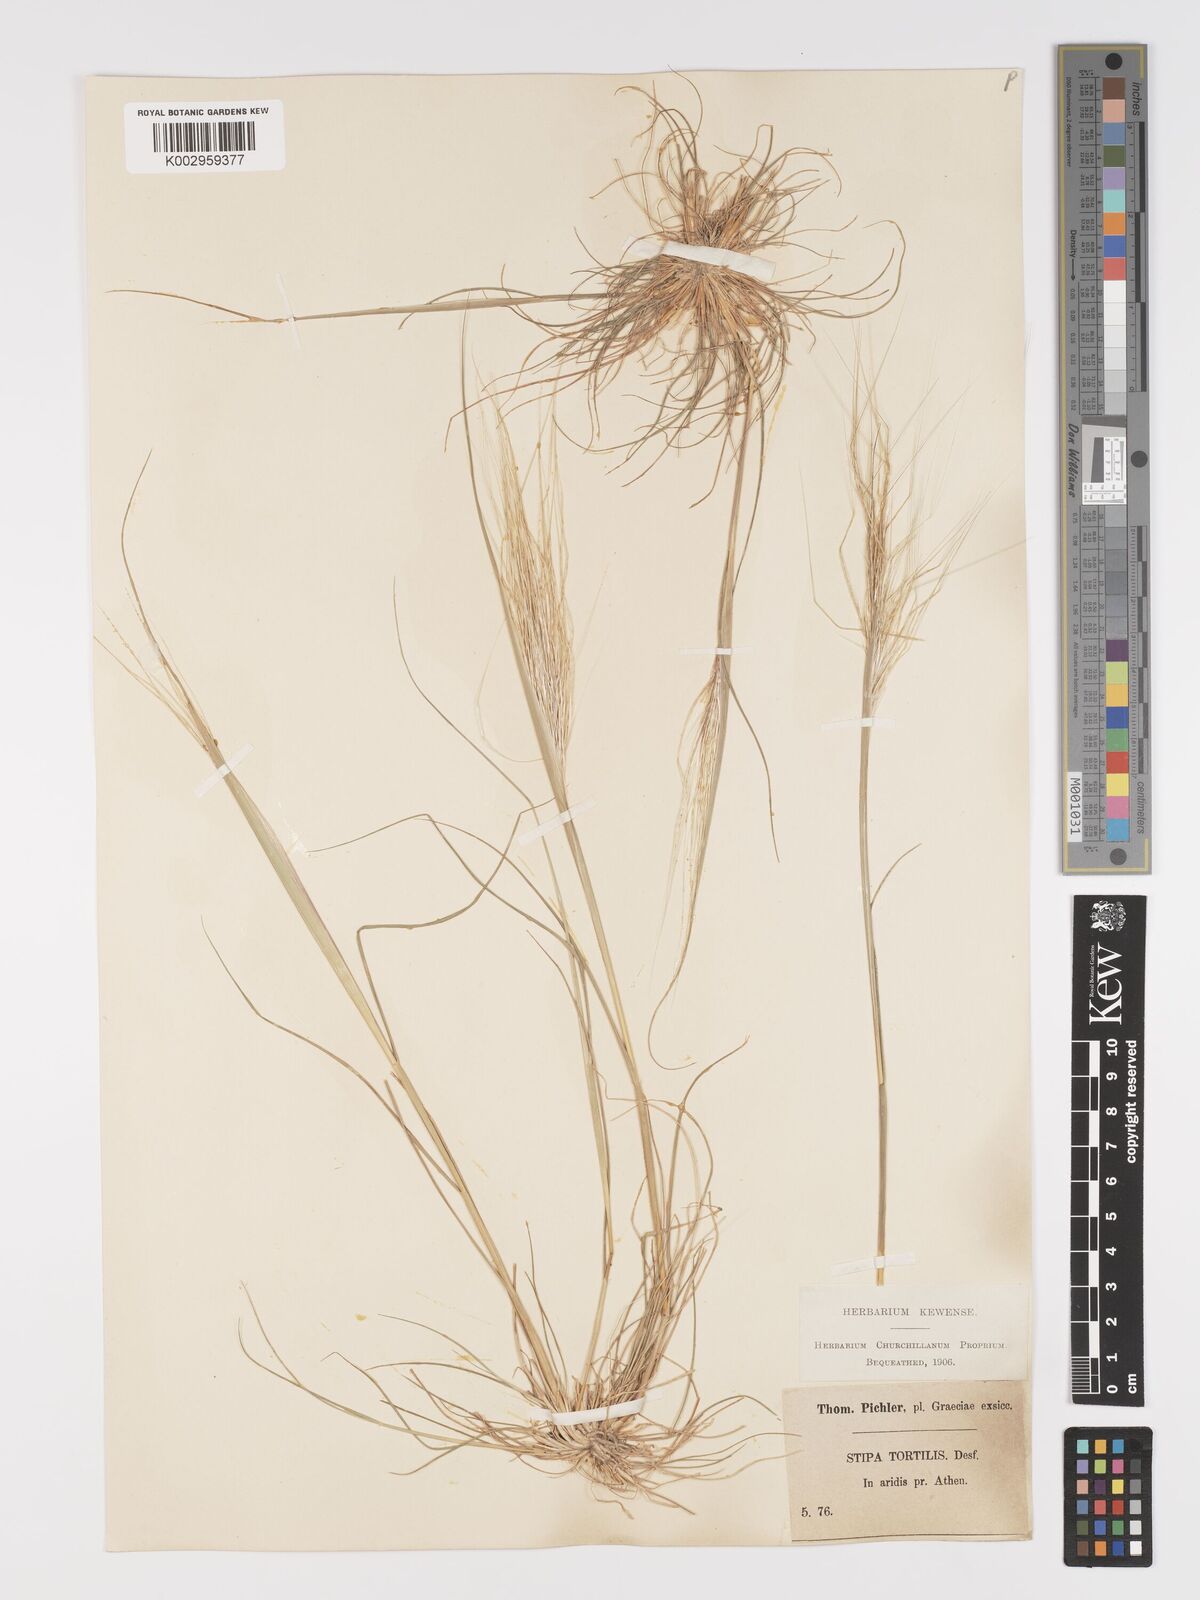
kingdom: Plantae
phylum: Tracheophyta
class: Liliopsida
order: Poales
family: Poaceae
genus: Stipellula
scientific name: Stipellula capensis
